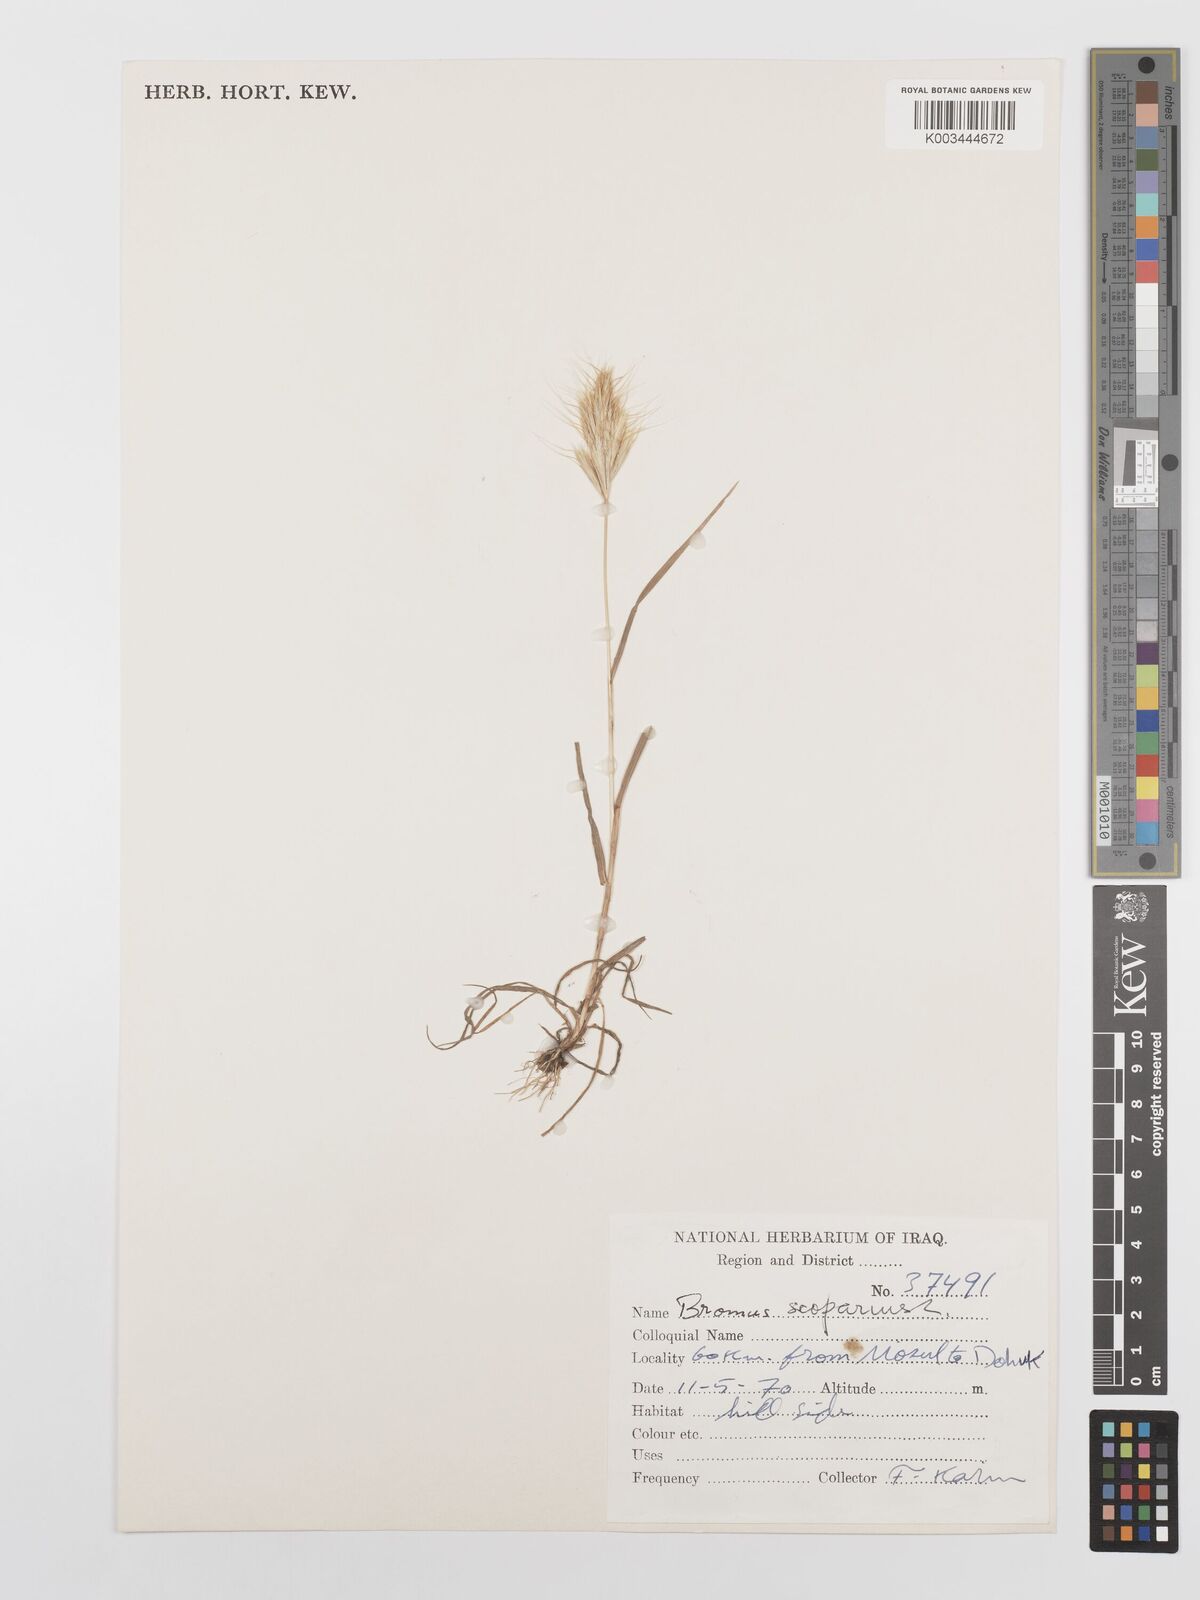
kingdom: Plantae
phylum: Tracheophyta
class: Liliopsida
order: Poales
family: Poaceae
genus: Bromus
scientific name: Bromus scoparius
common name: Broom brome
